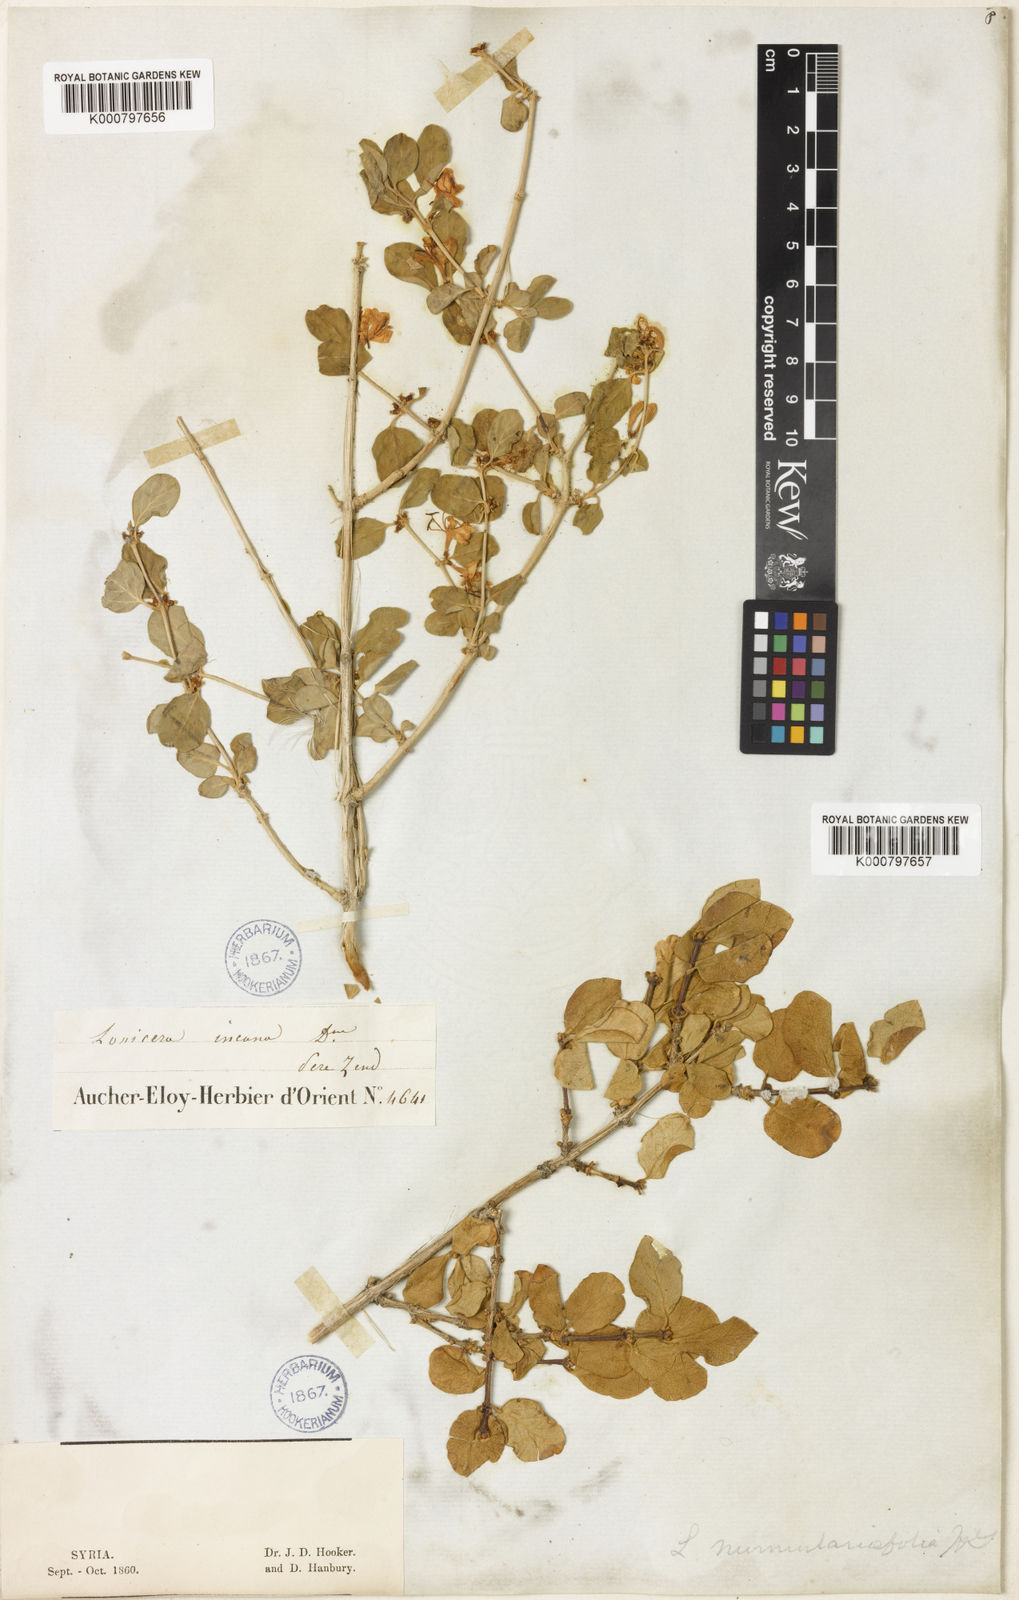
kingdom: Plantae
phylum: Tracheophyta
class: Magnoliopsida
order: Dipsacales
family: Caprifoliaceae
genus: Lonicera
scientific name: Lonicera nummulariifolia
